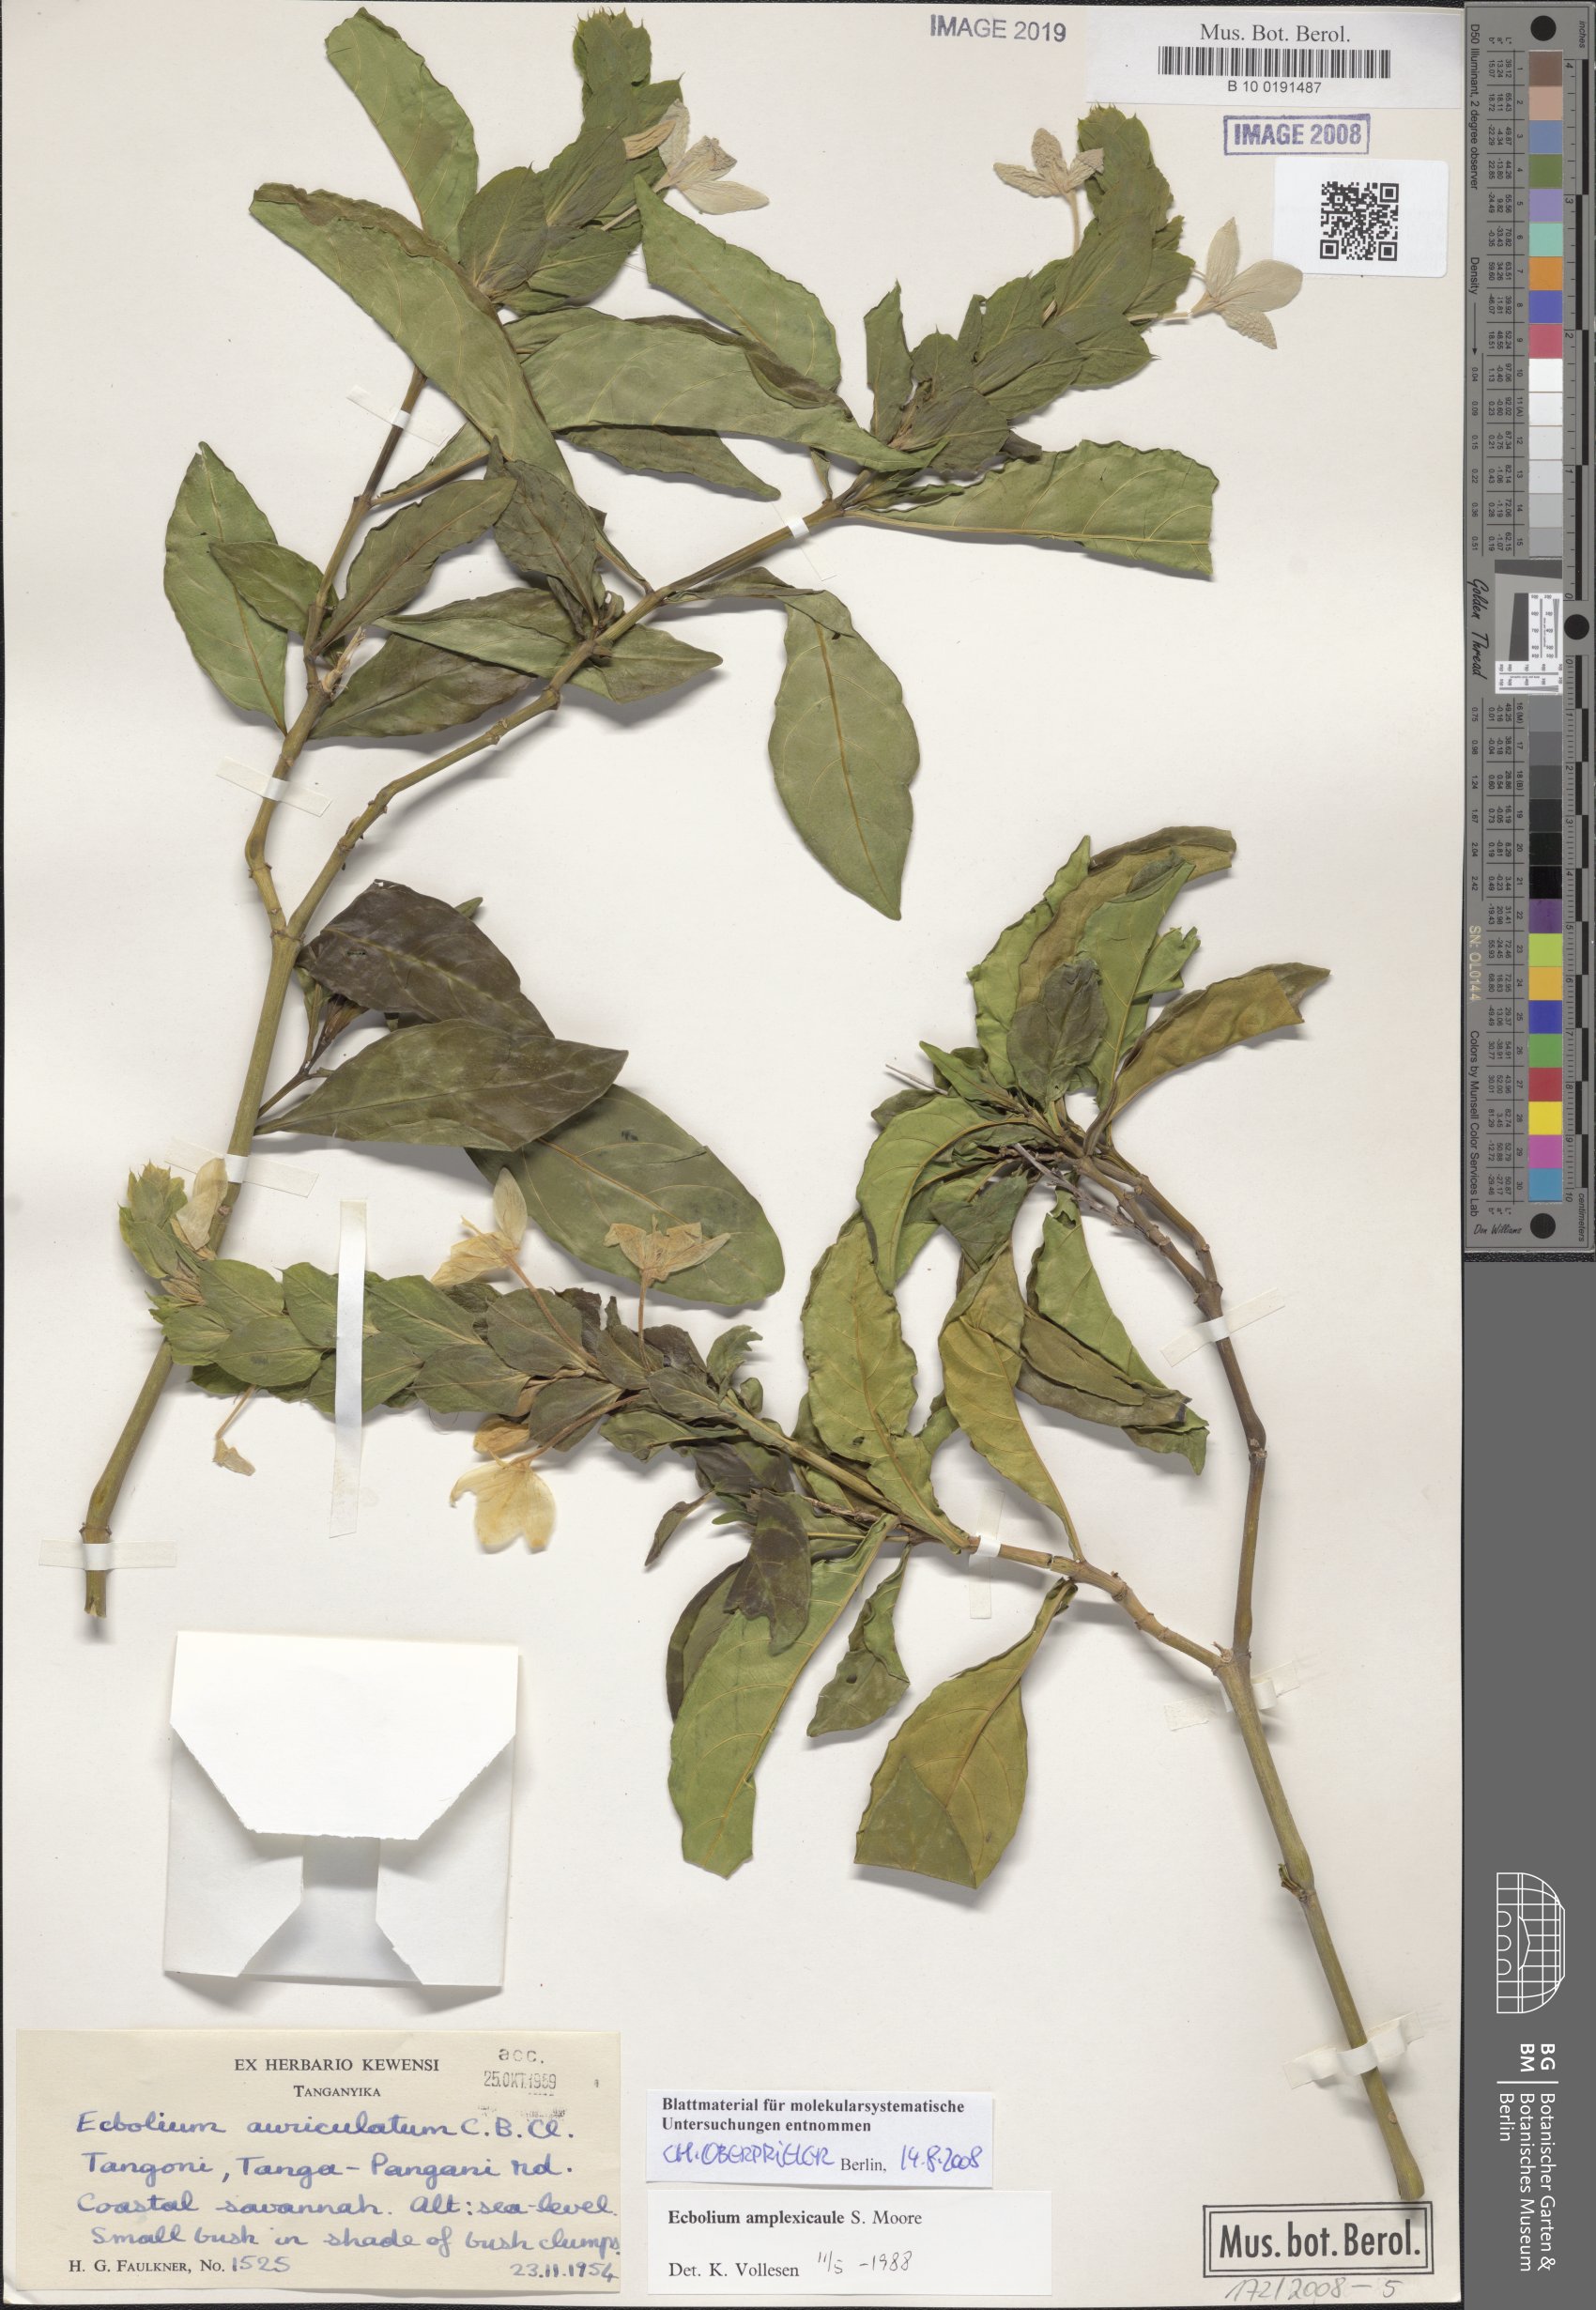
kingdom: Plantae
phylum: Tracheophyta
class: Magnoliopsida
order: Lamiales
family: Acanthaceae
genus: Ecbolium
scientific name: Ecbolium amplexicaule
